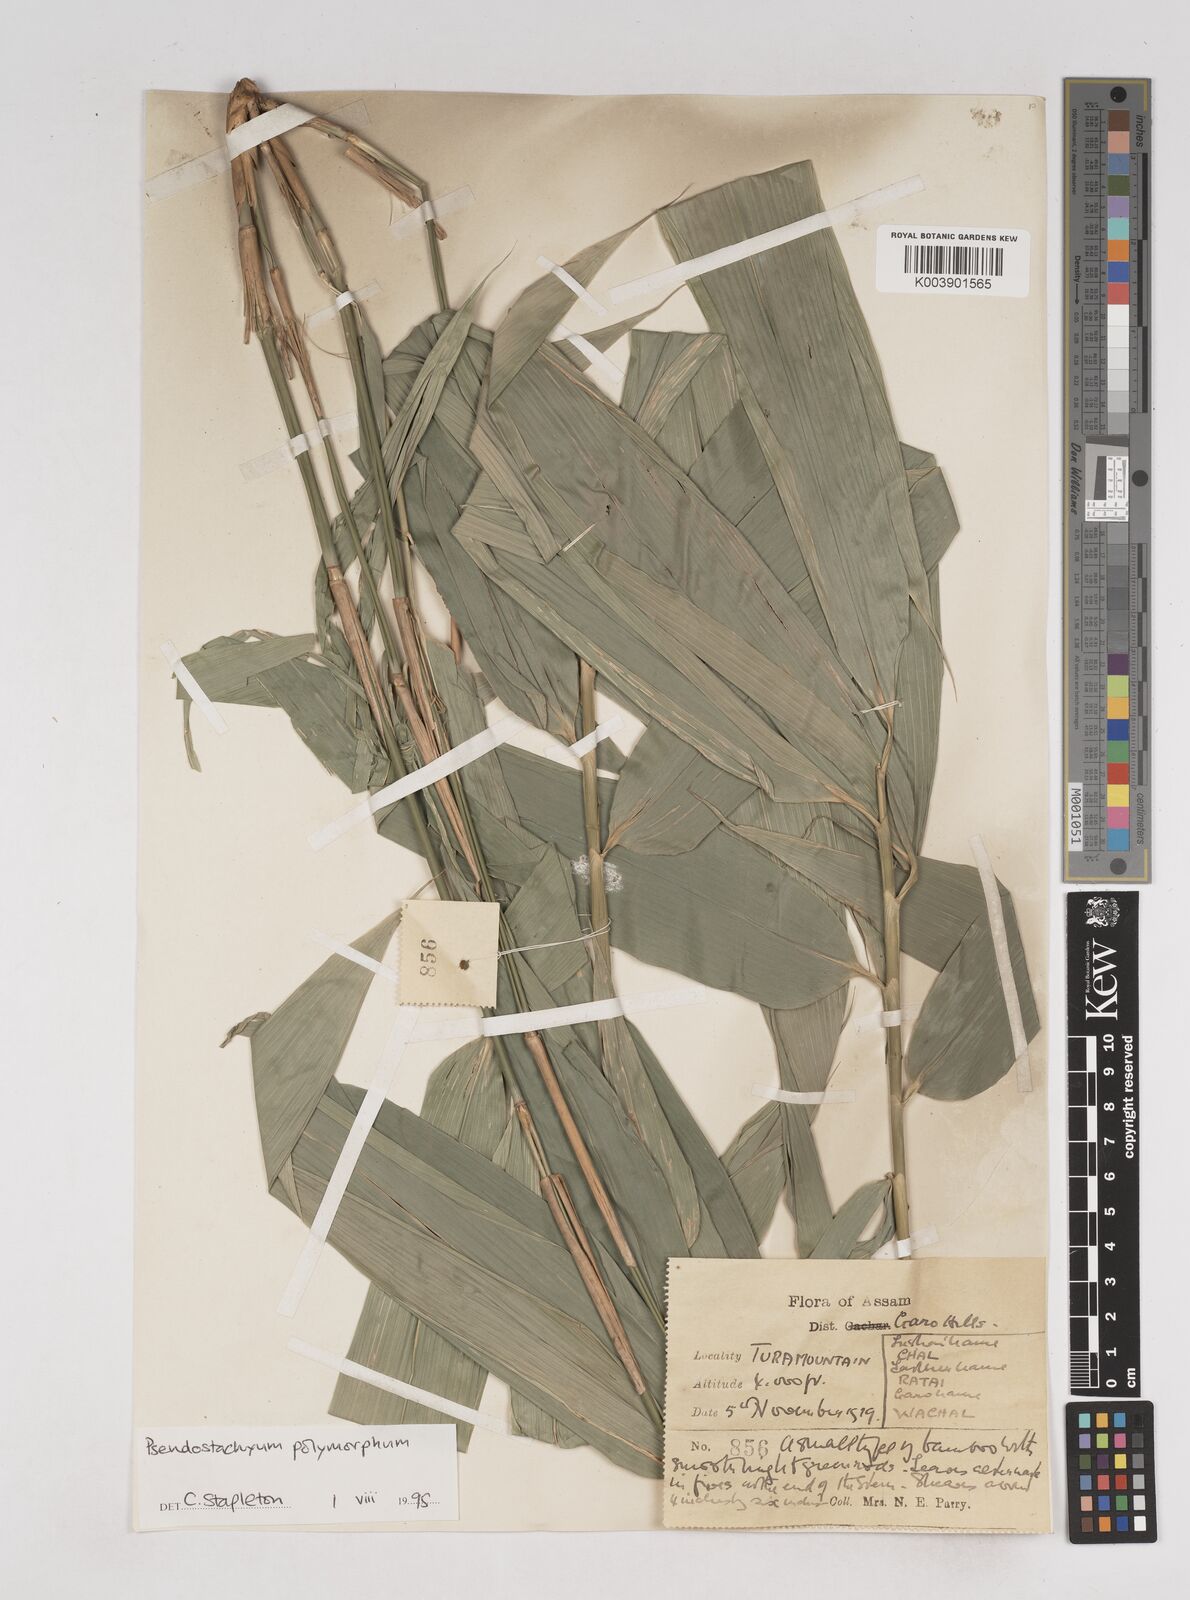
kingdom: Plantae
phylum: Tracheophyta
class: Liliopsida
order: Poales
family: Poaceae
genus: Pseudostachyum
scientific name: Pseudostachyum polymorphum
